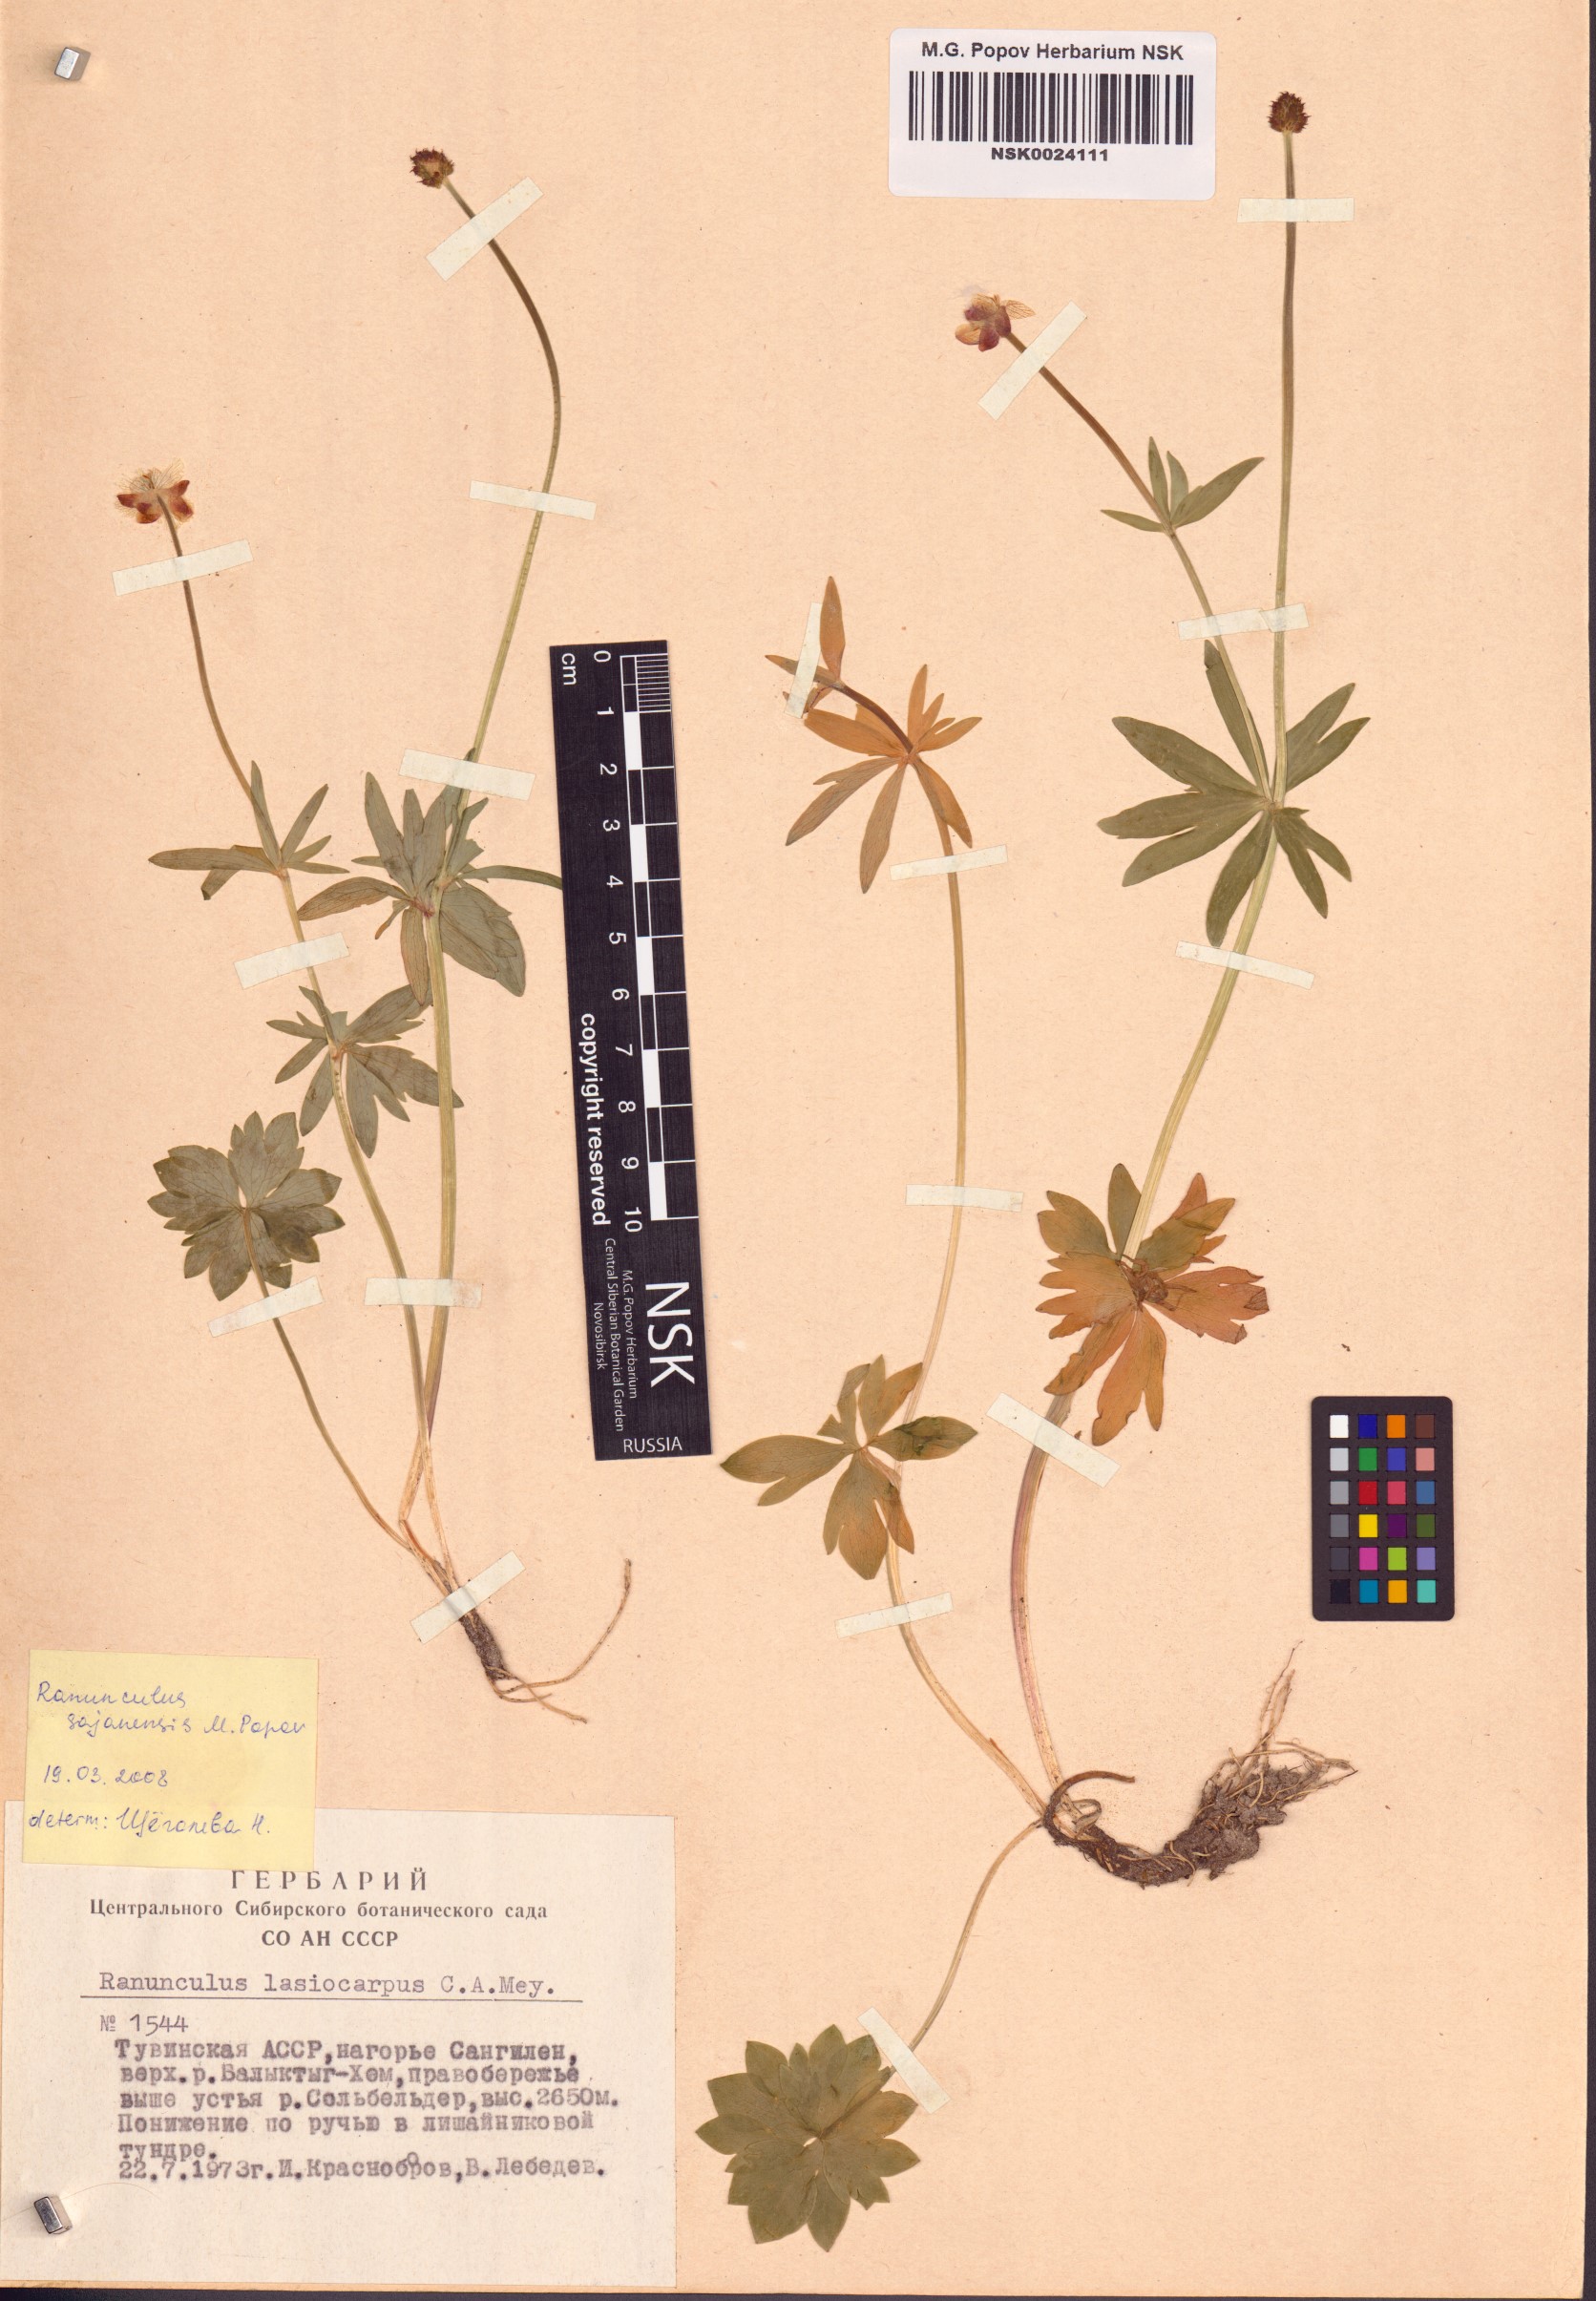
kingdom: Plantae
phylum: Tracheophyta
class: Magnoliopsida
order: Ranunculales
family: Ranunculaceae
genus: Ranunculus
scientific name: Ranunculus sajanensis
